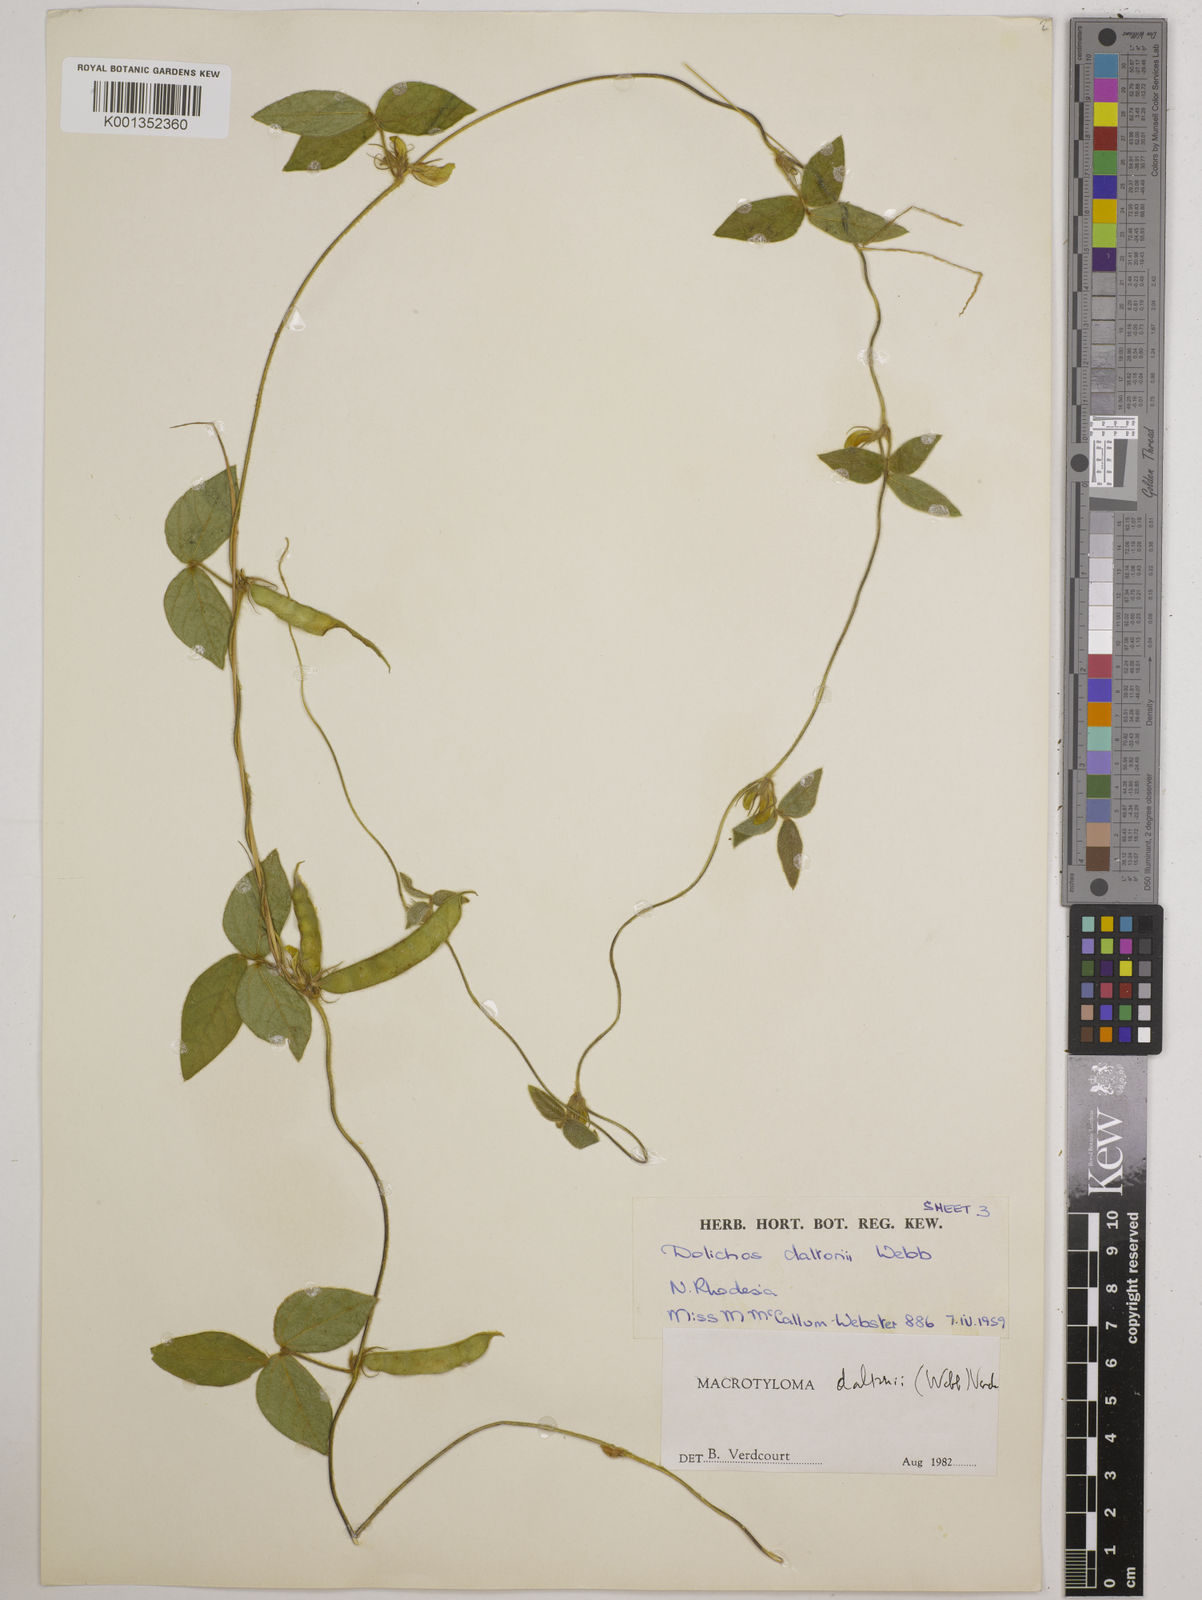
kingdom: Plantae
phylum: Tracheophyta
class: Magnoliopsida
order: Fabales
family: Fabaceae
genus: Macrotyloma
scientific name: Macrotyloma daltonii
